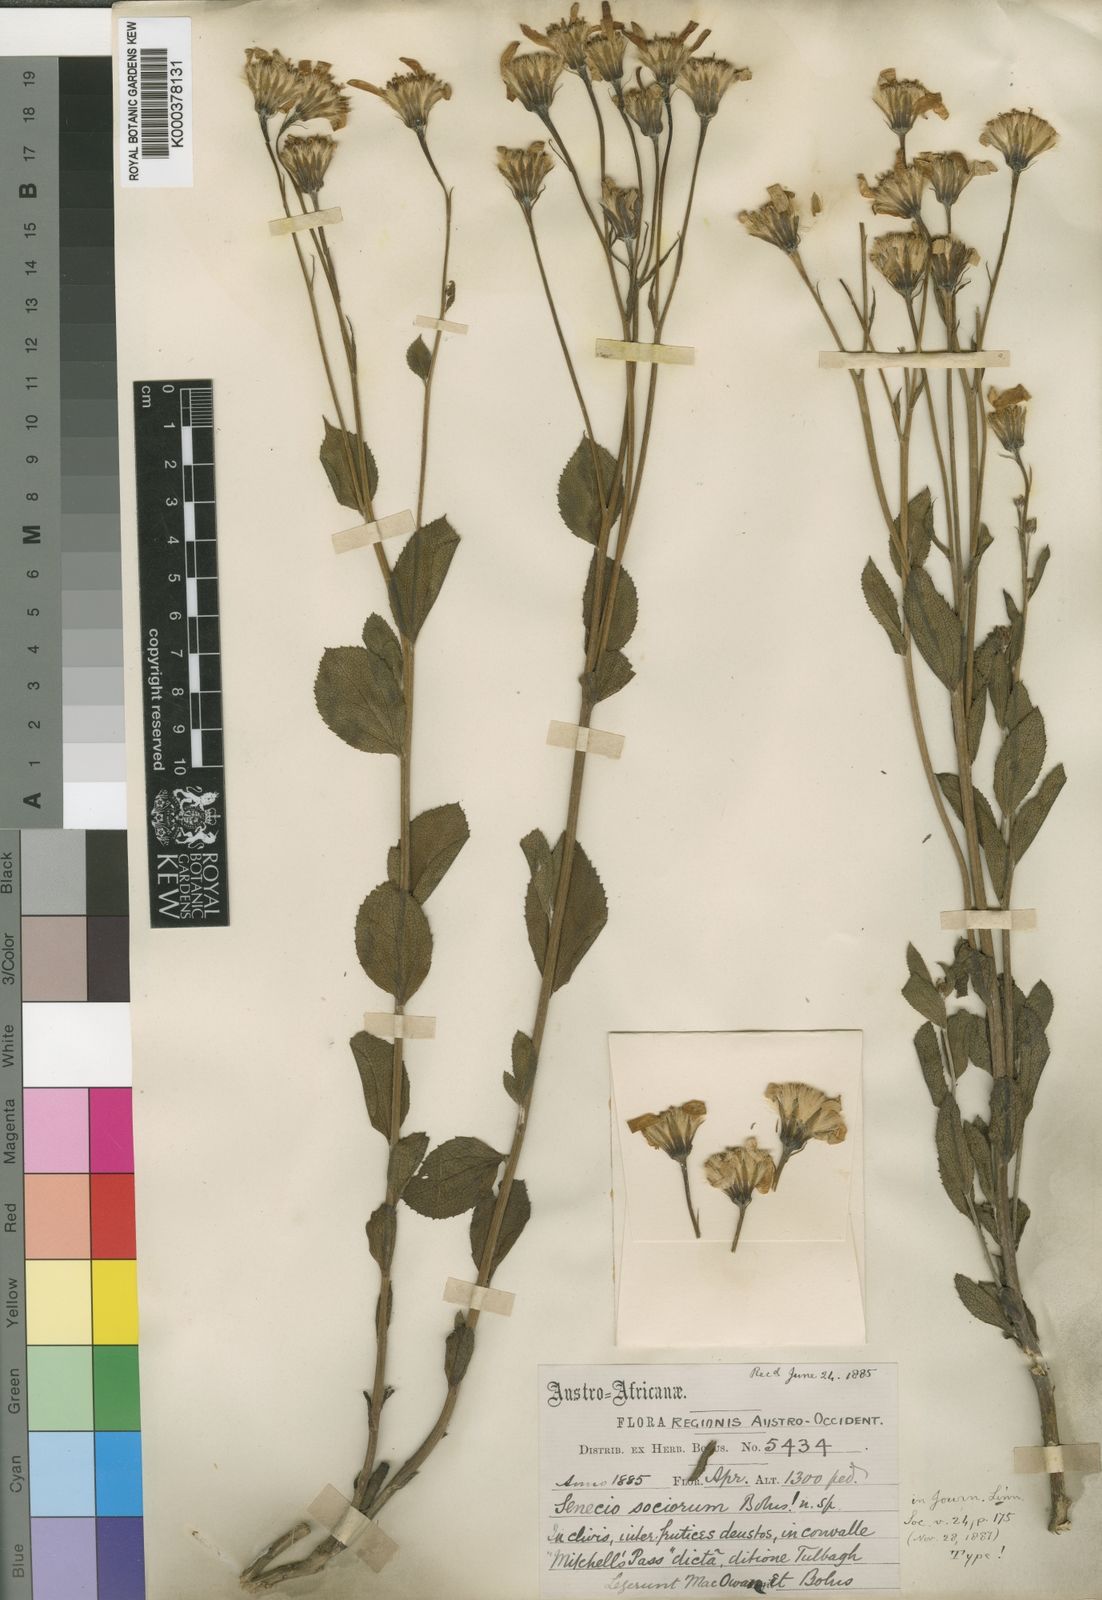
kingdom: Plantae
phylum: Tracheophyta
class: Magnoliopsida
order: Asterales
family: Asteraceae
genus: Senecio
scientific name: Senecio sociorum
